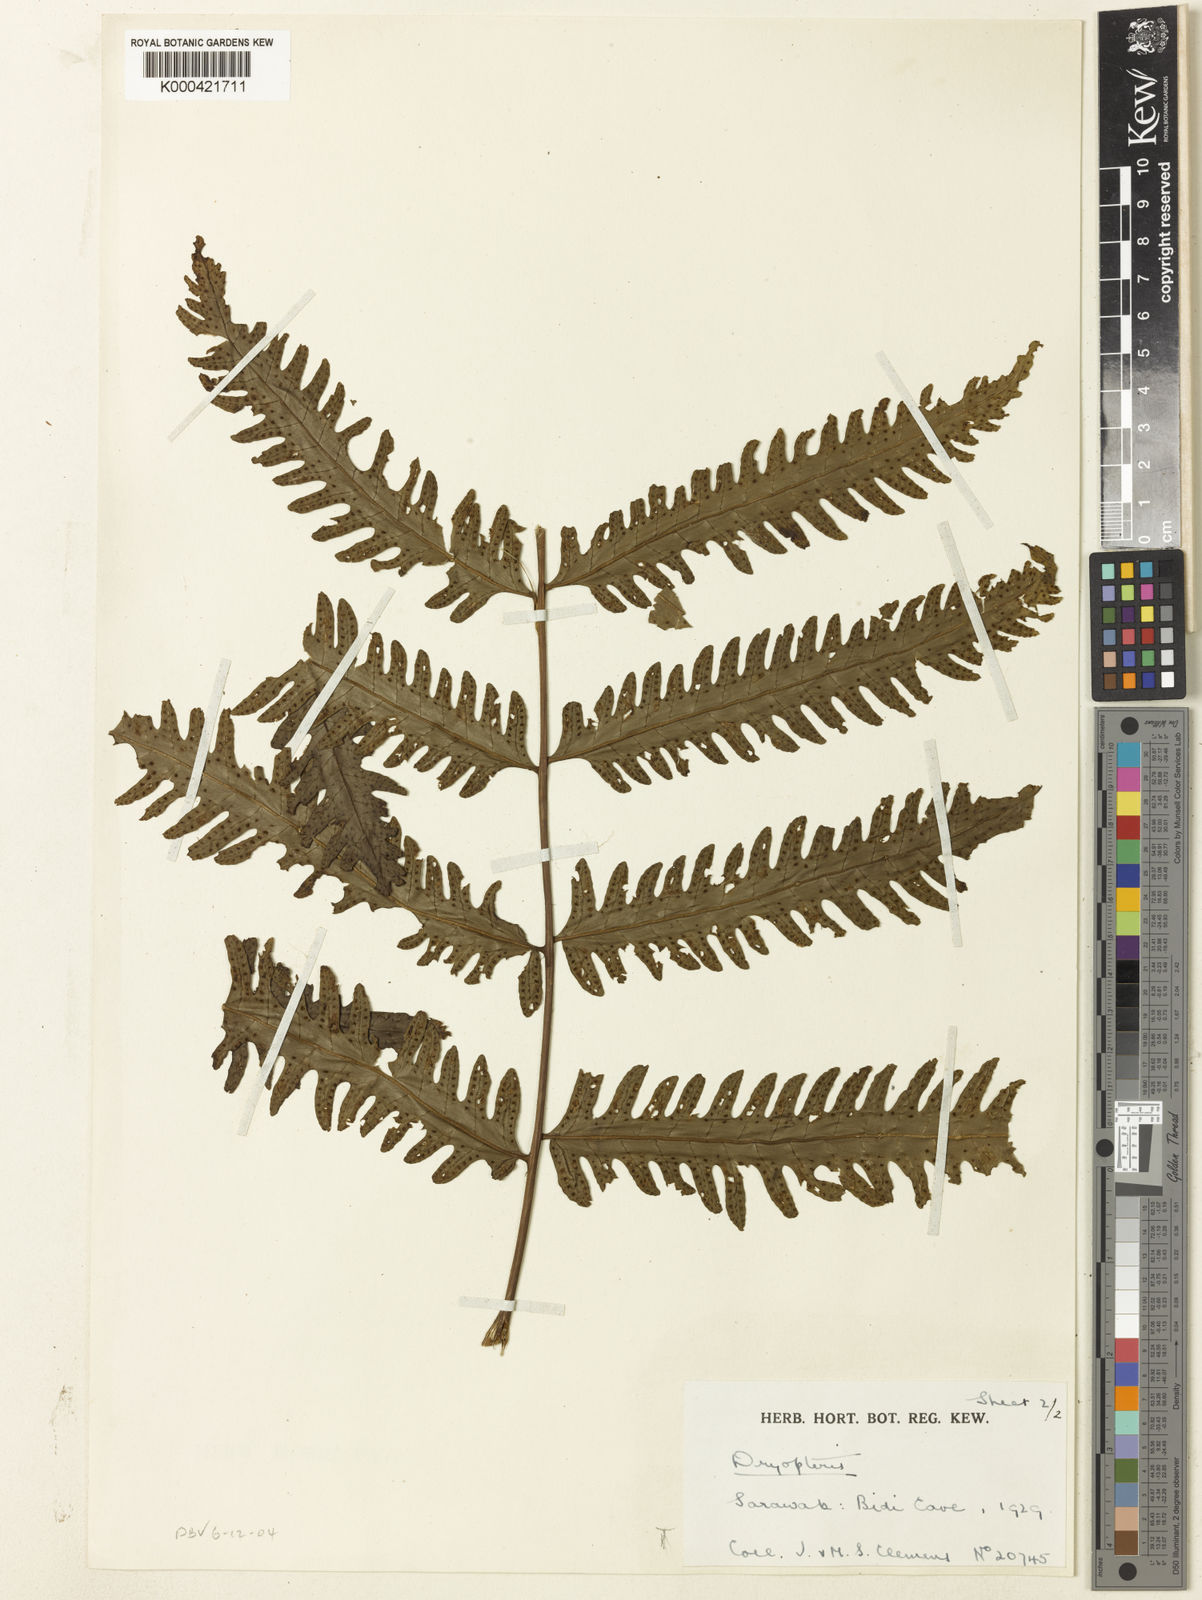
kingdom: Plantae
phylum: Tracheophyta
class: Polypodiopsida
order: Polypodiales
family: Tectariaceae
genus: Tectaria
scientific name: Tectaria gigantea
